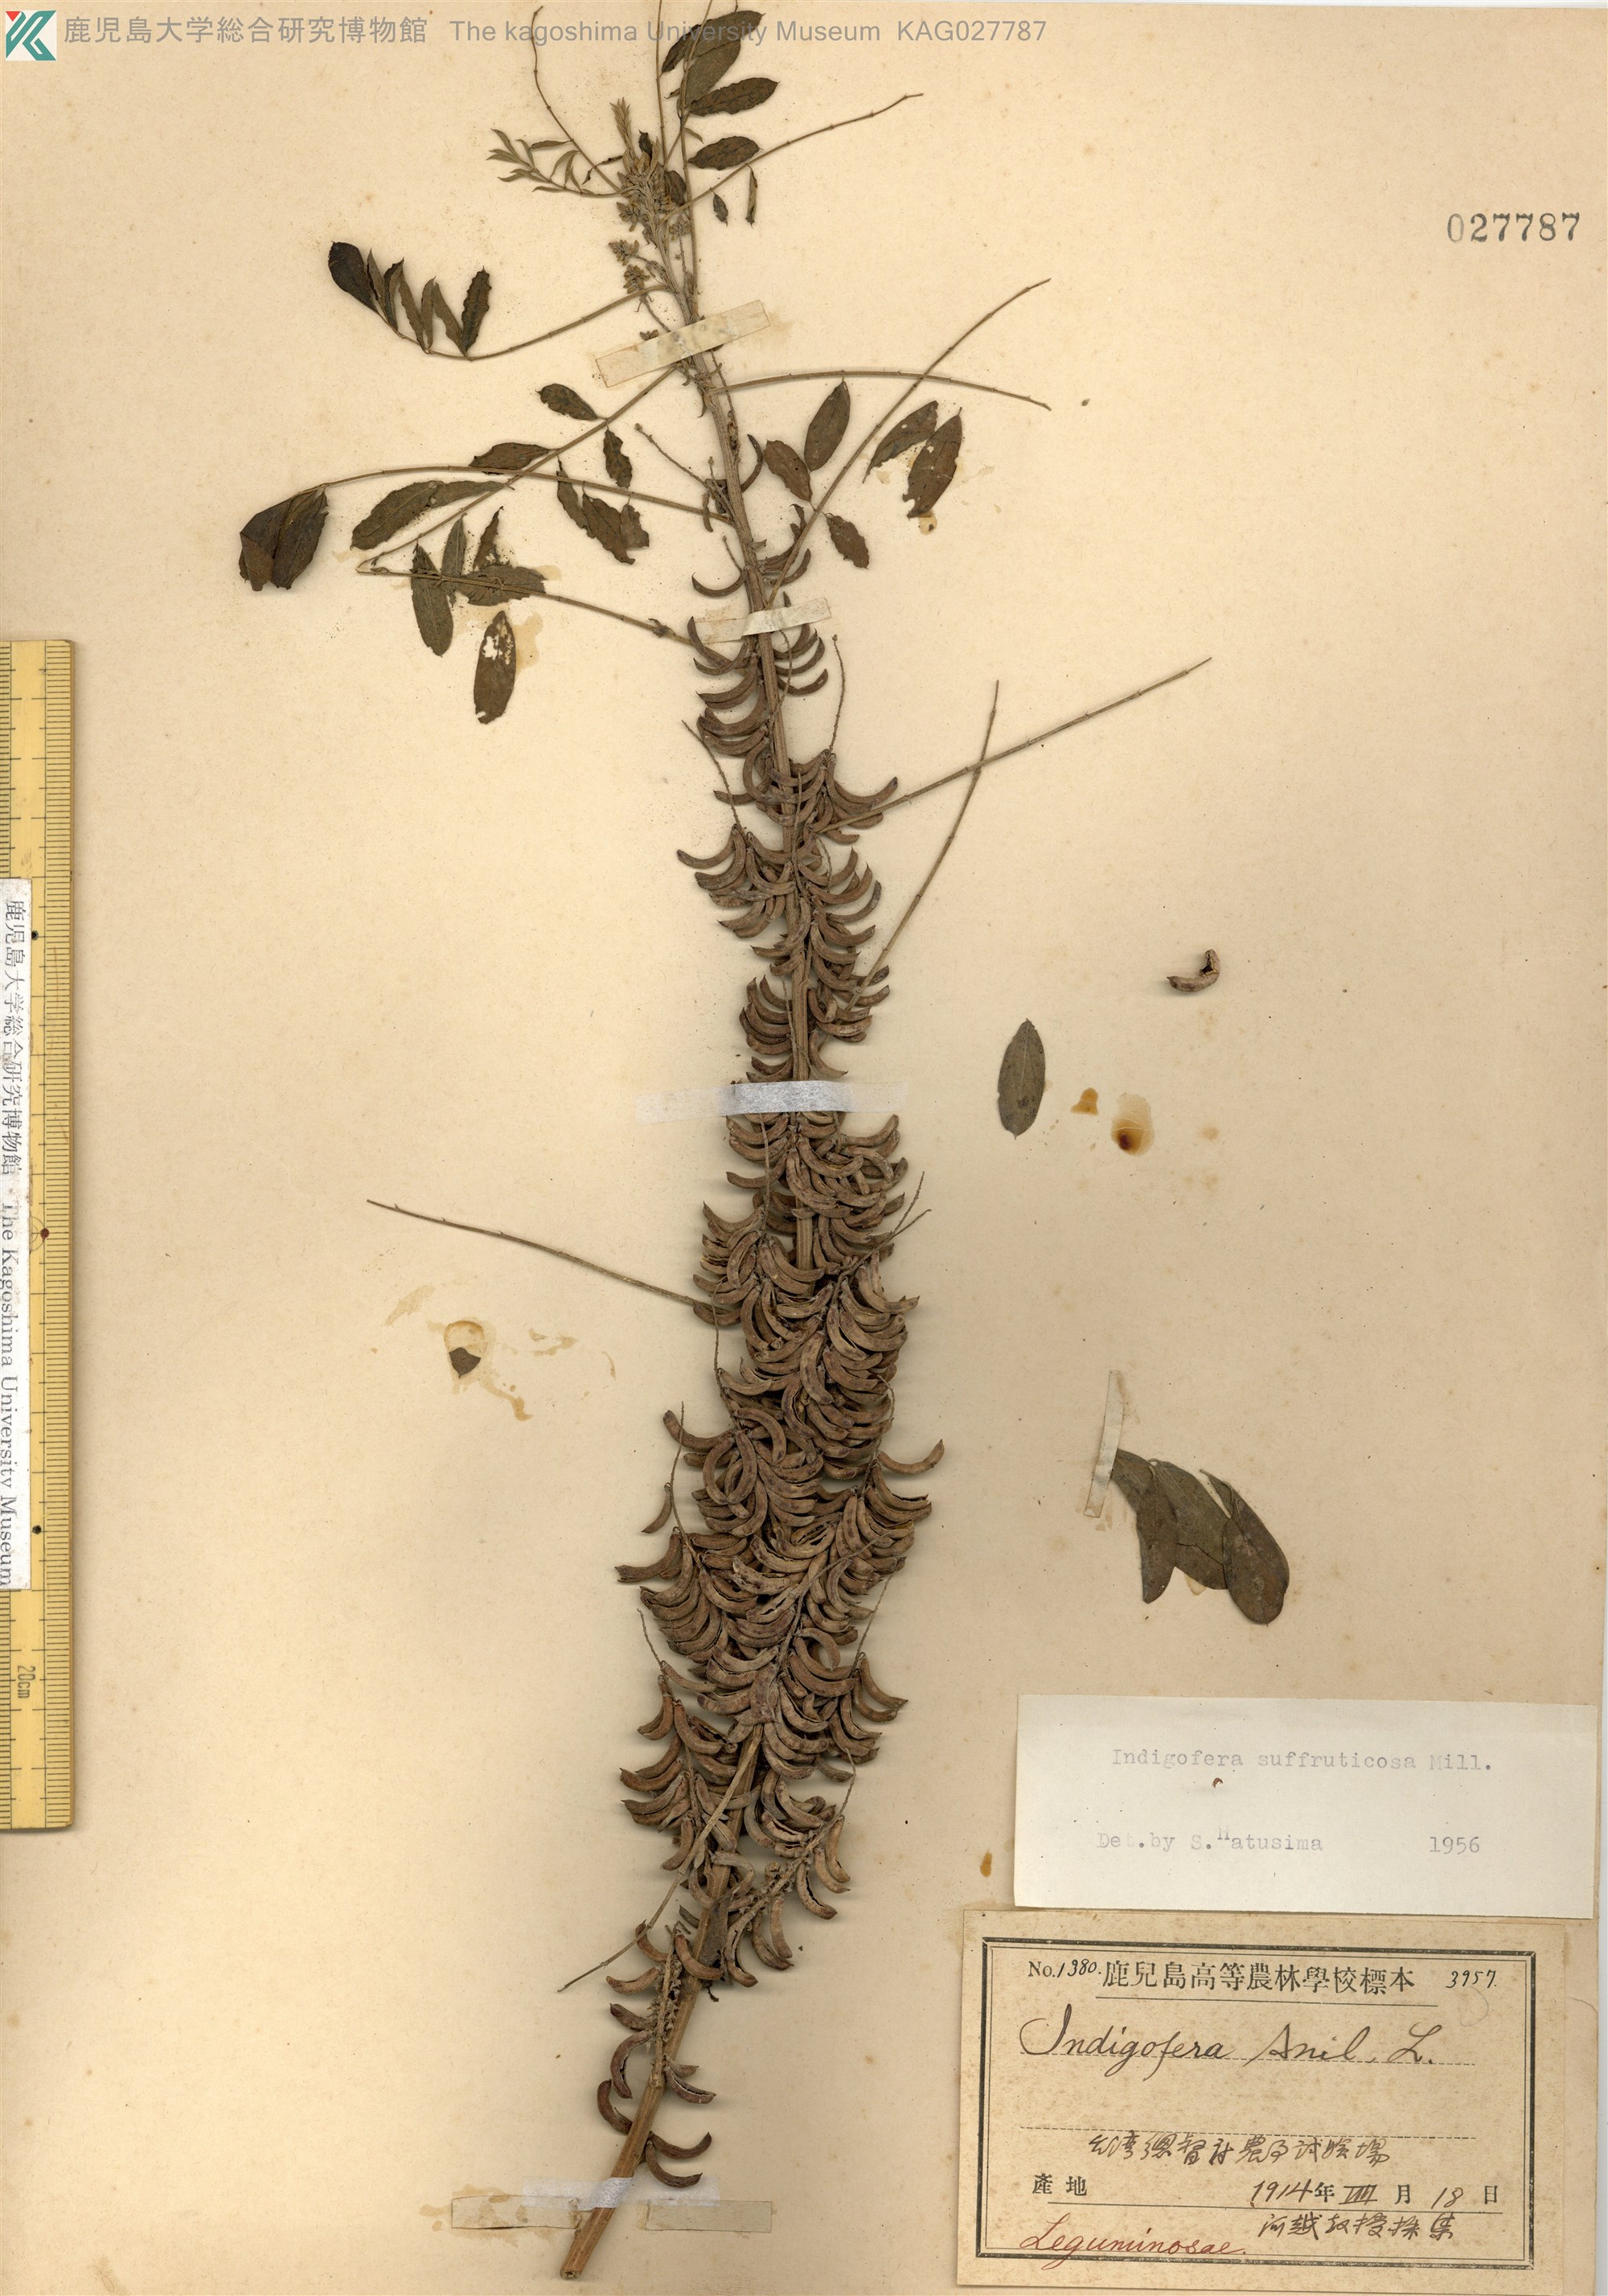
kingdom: Plantae
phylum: Tracheophyta
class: Magnoliopsida
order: Fabales
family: Fabaceae
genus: Indigofera
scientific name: Indigofera suffruticosa
